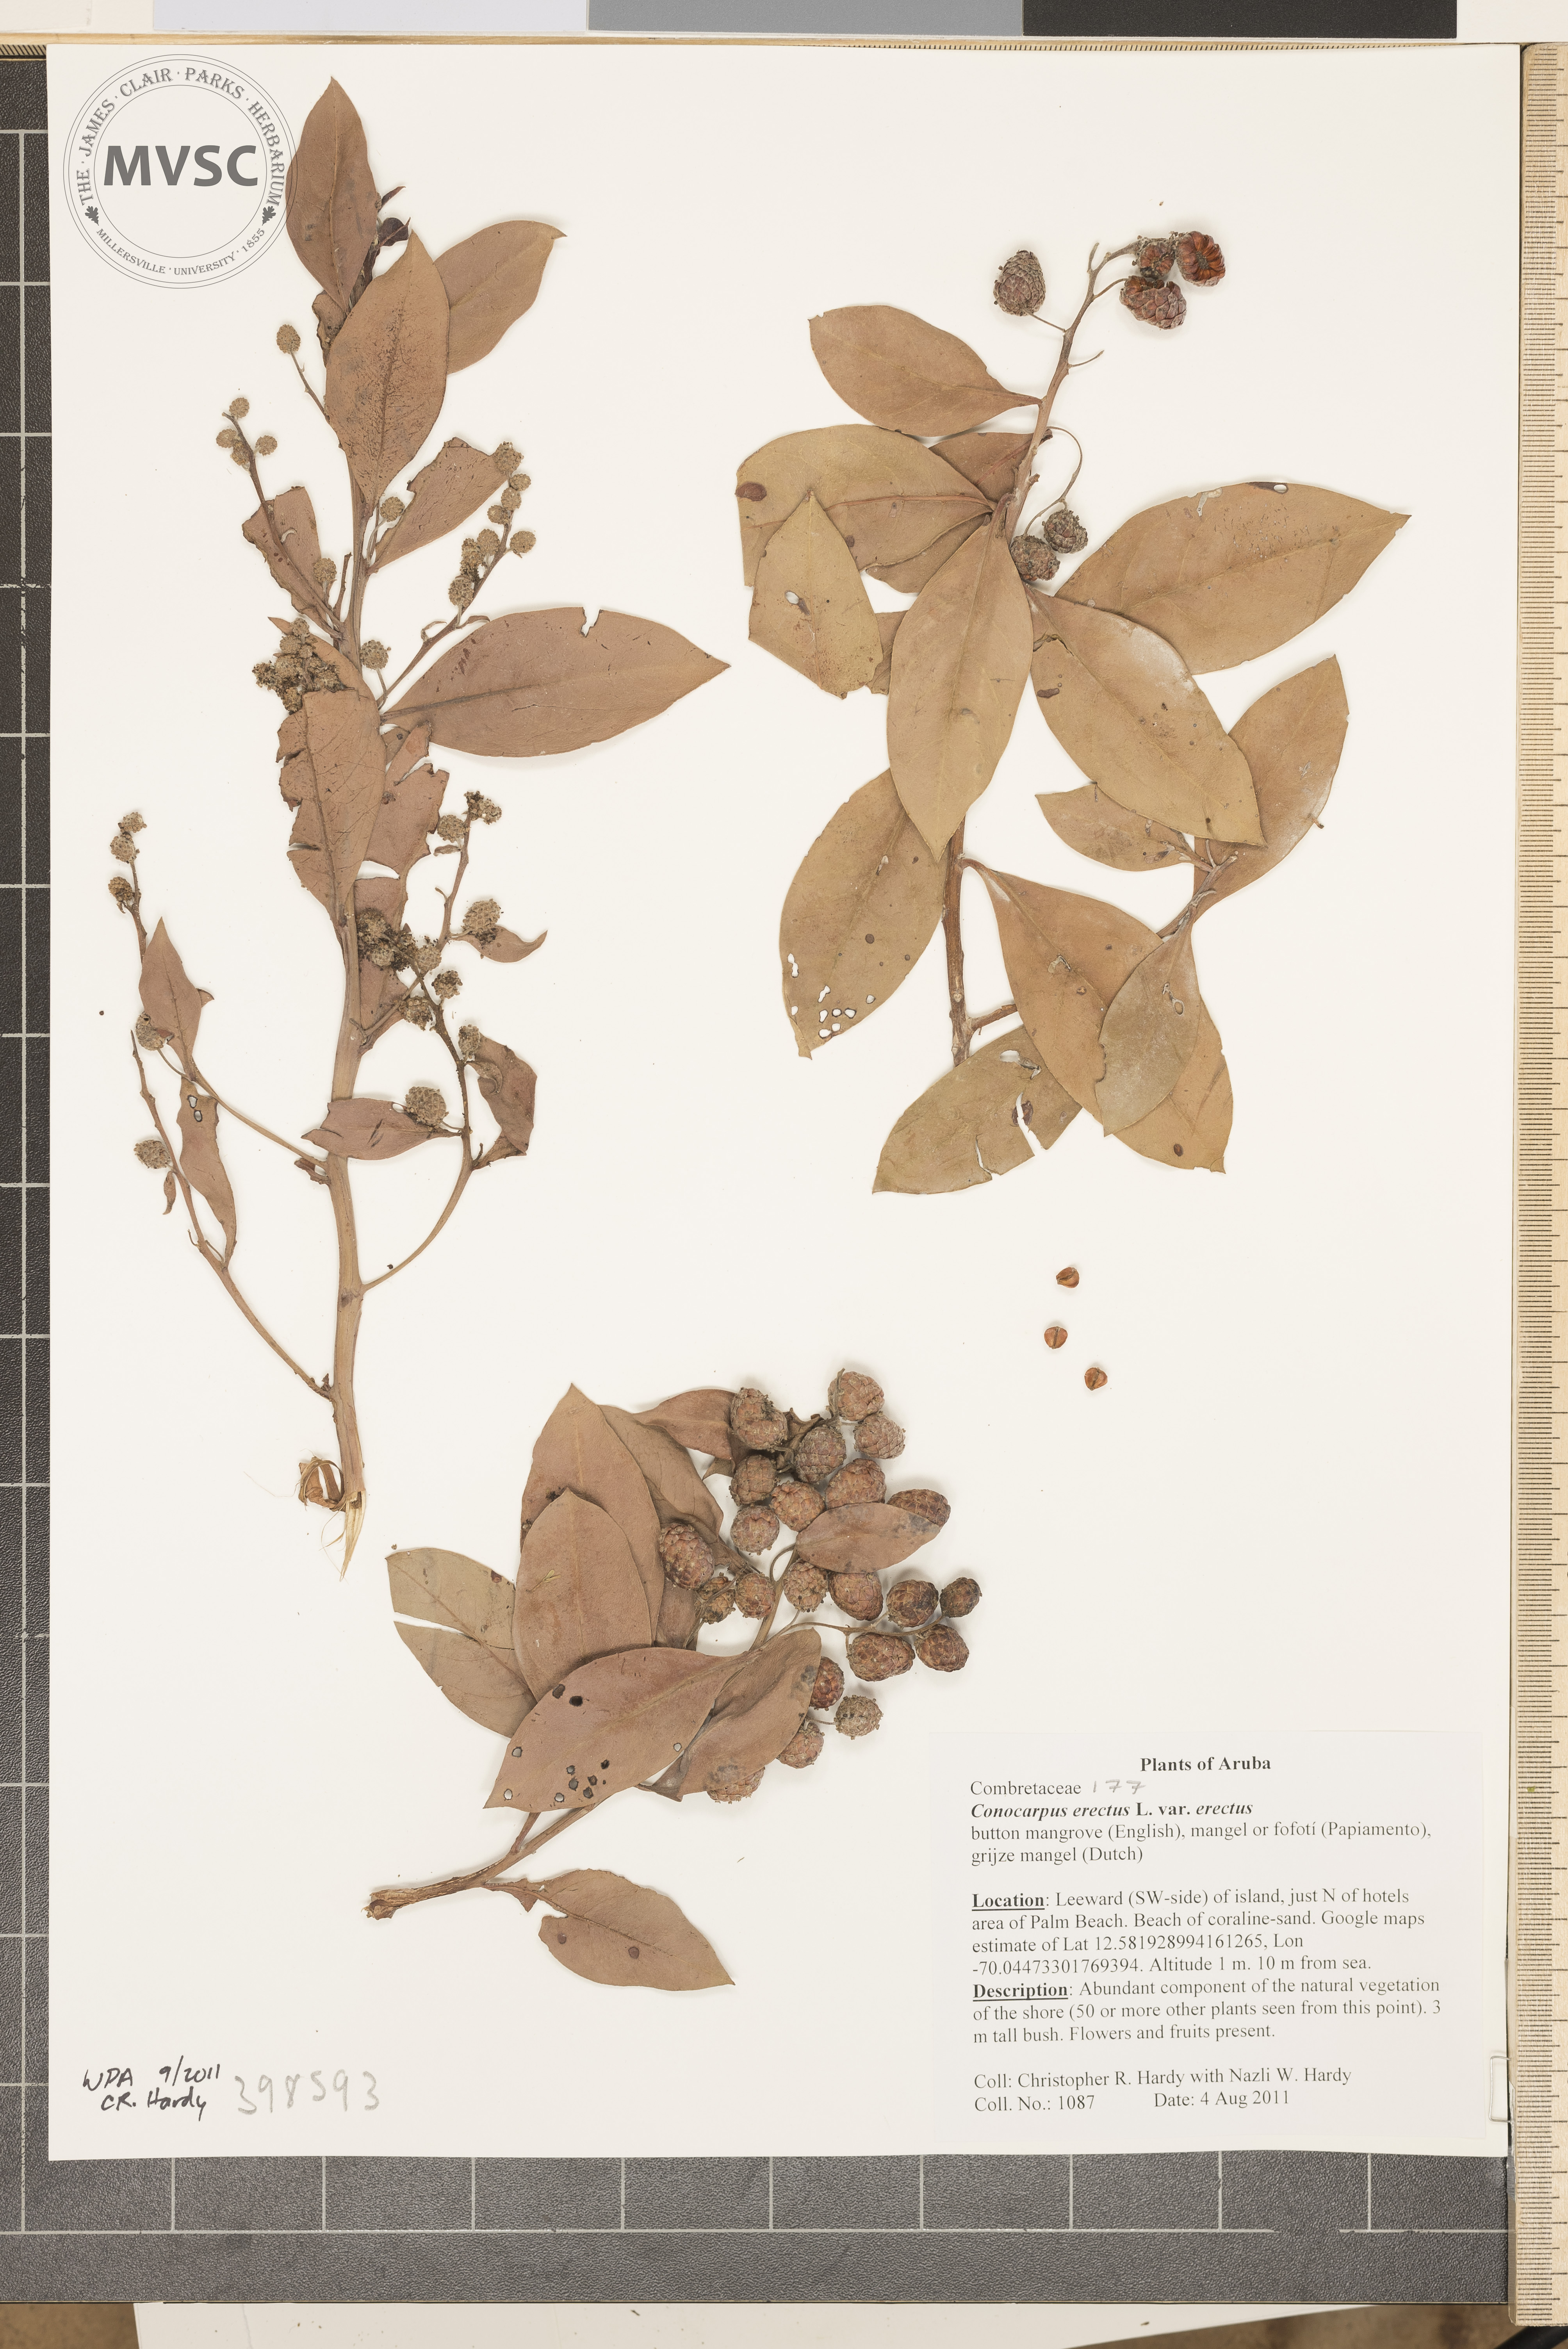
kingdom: Plantae
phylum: Tracheophyta
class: Magnoliopsida
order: Myrtales
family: Combretaceae
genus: Conocarpus
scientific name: Conocarpus erectus
